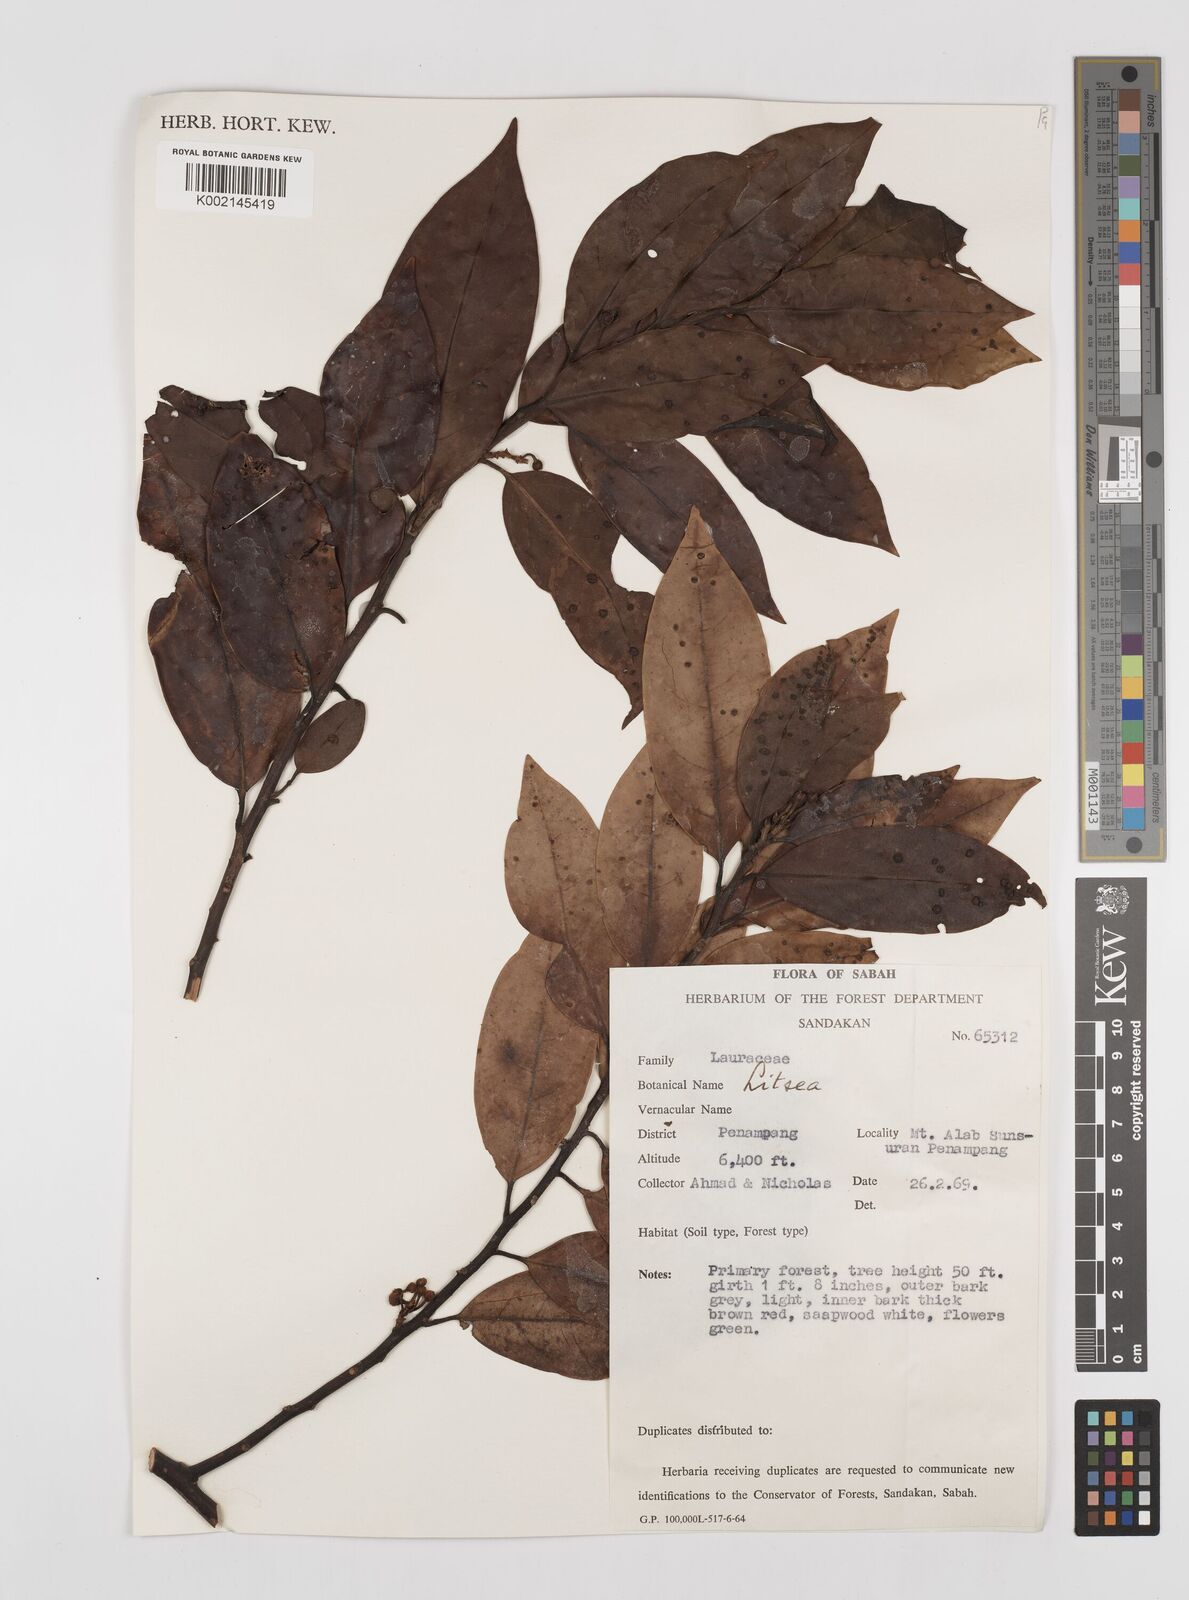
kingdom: Plantae
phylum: Tracheophyta
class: Magnoliopsida
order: Laurales
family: Lauraceae
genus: Litsea
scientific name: Litsea
